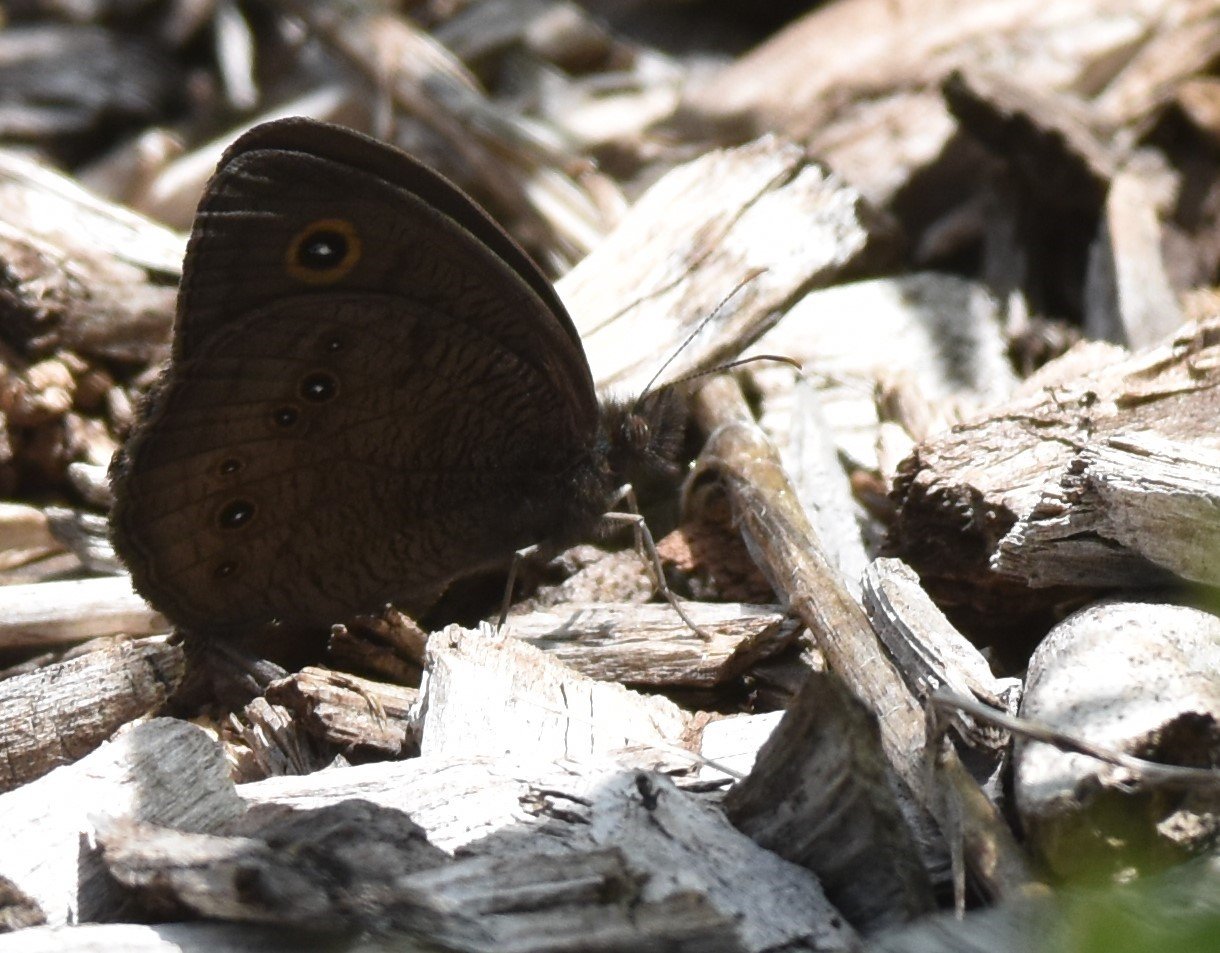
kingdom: Animalia
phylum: Arthropoda
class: Insecta
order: Lepidoptera
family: Nymphalidae
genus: Cercyonis
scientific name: Cercyonis pegala
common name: Common Wood-Nymph
